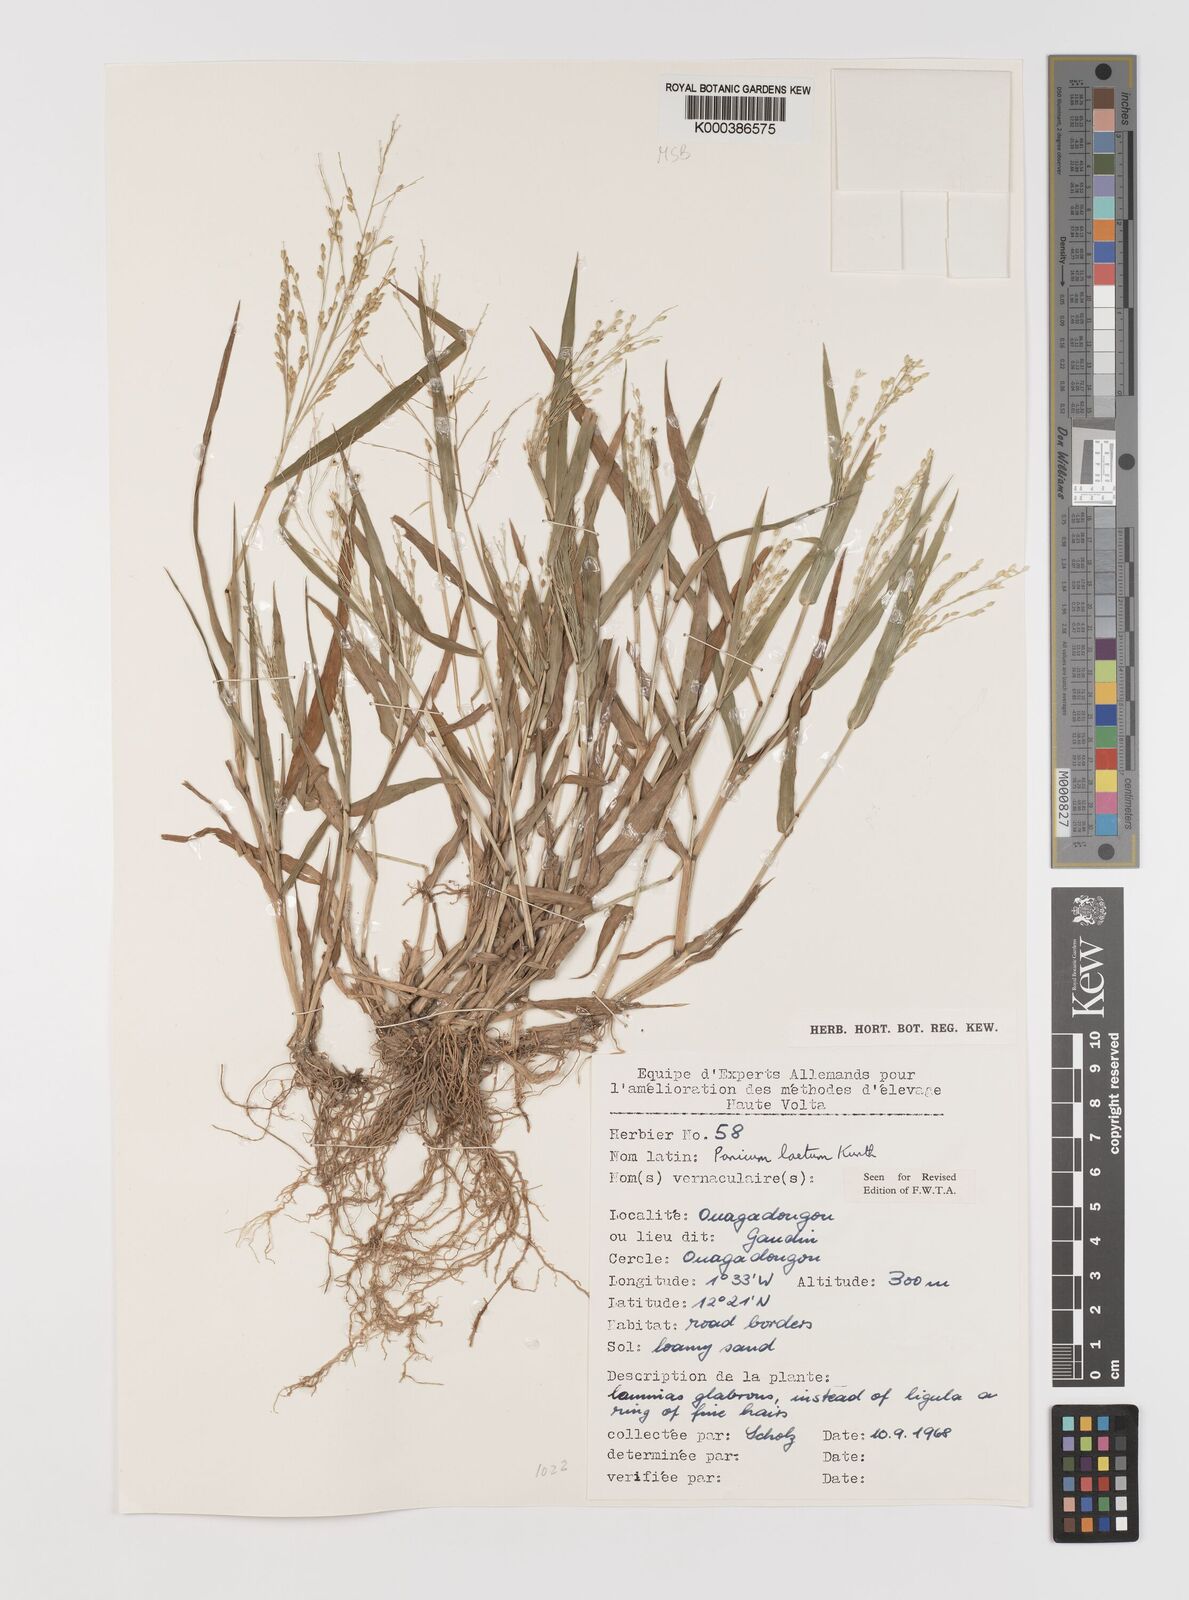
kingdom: Plantae
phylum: Tracheophyta
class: Liliopsida
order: Poales
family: Poaceae
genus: Panicum
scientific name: Panicum laetum
